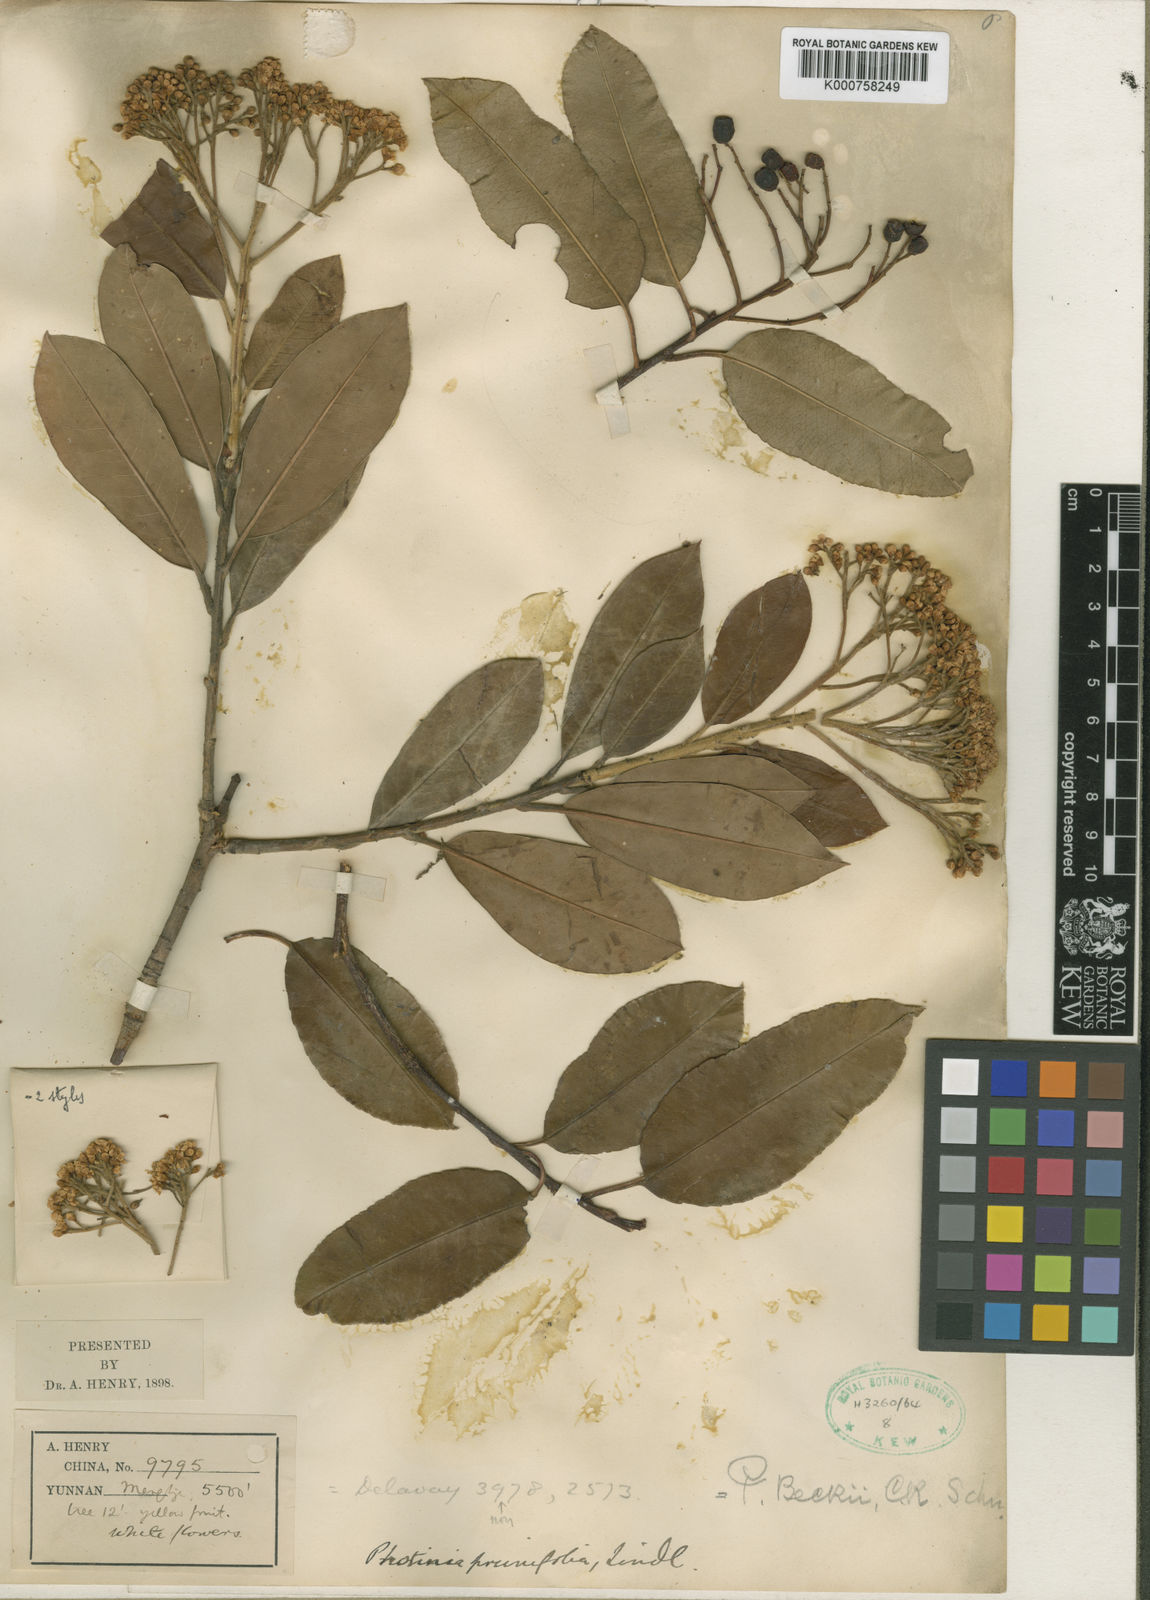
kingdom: Plantae
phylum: Tracheophyta
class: Magnoliopsida
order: Rosales
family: Rosaceae
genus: Photinia
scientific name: Photinia glabra
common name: Japanese photinia
